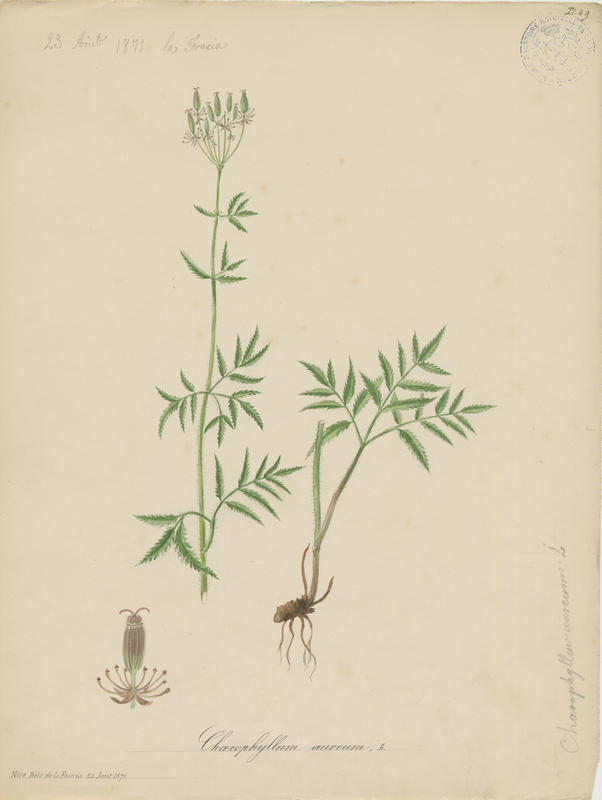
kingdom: Plantae
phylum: Tracheophyta
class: Magnoliopsida
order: Apiales
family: Apiaceae
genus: Chaerophyllum
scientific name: Chaerophyllum aureum
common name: Golden chervil
